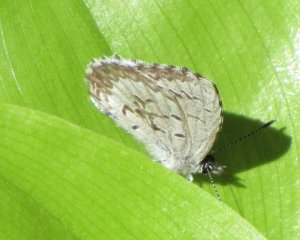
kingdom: Animalia
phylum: Arthropoda
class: Insecta
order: Lepidoptera
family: Lycaenidae
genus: Celastrina
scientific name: Celastrina lucia
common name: Northern Spring Azure
